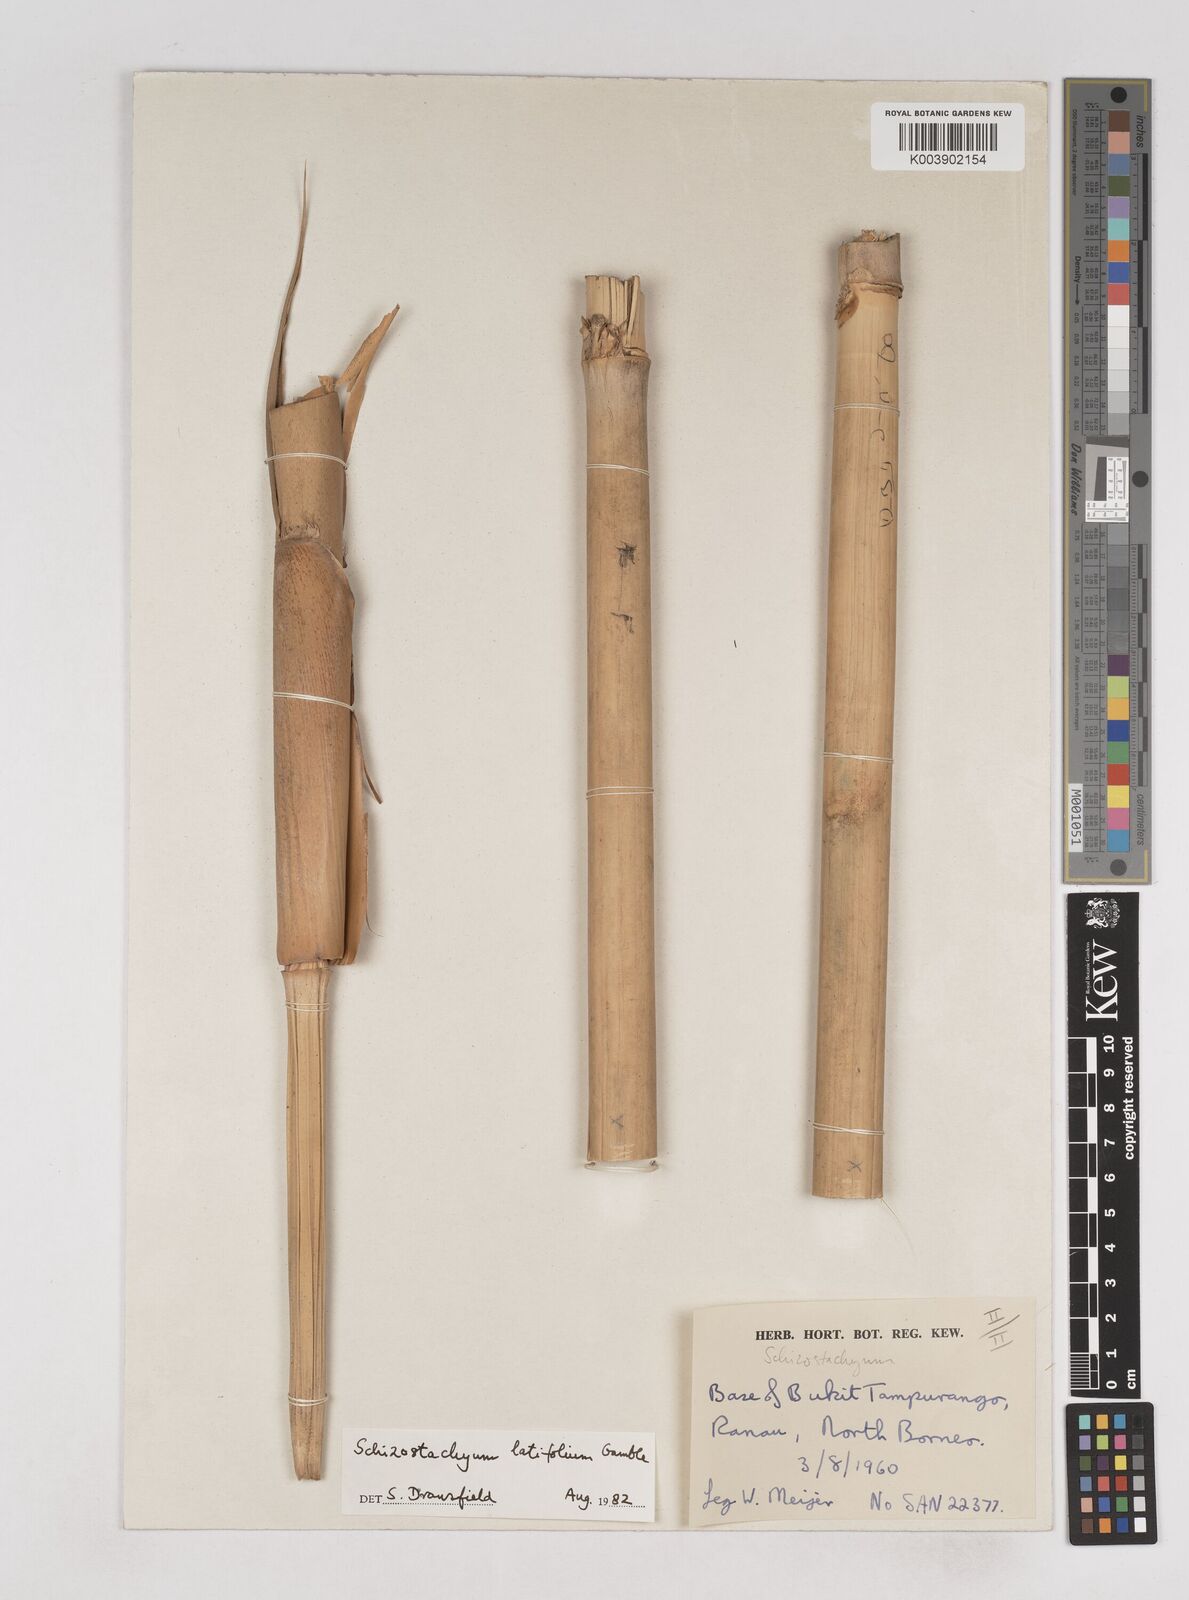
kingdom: Plantae
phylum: Tracheophyta
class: Liliopsida
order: Poales
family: Poaceae
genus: Schizostachyum
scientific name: Schizostachyum latifolium
